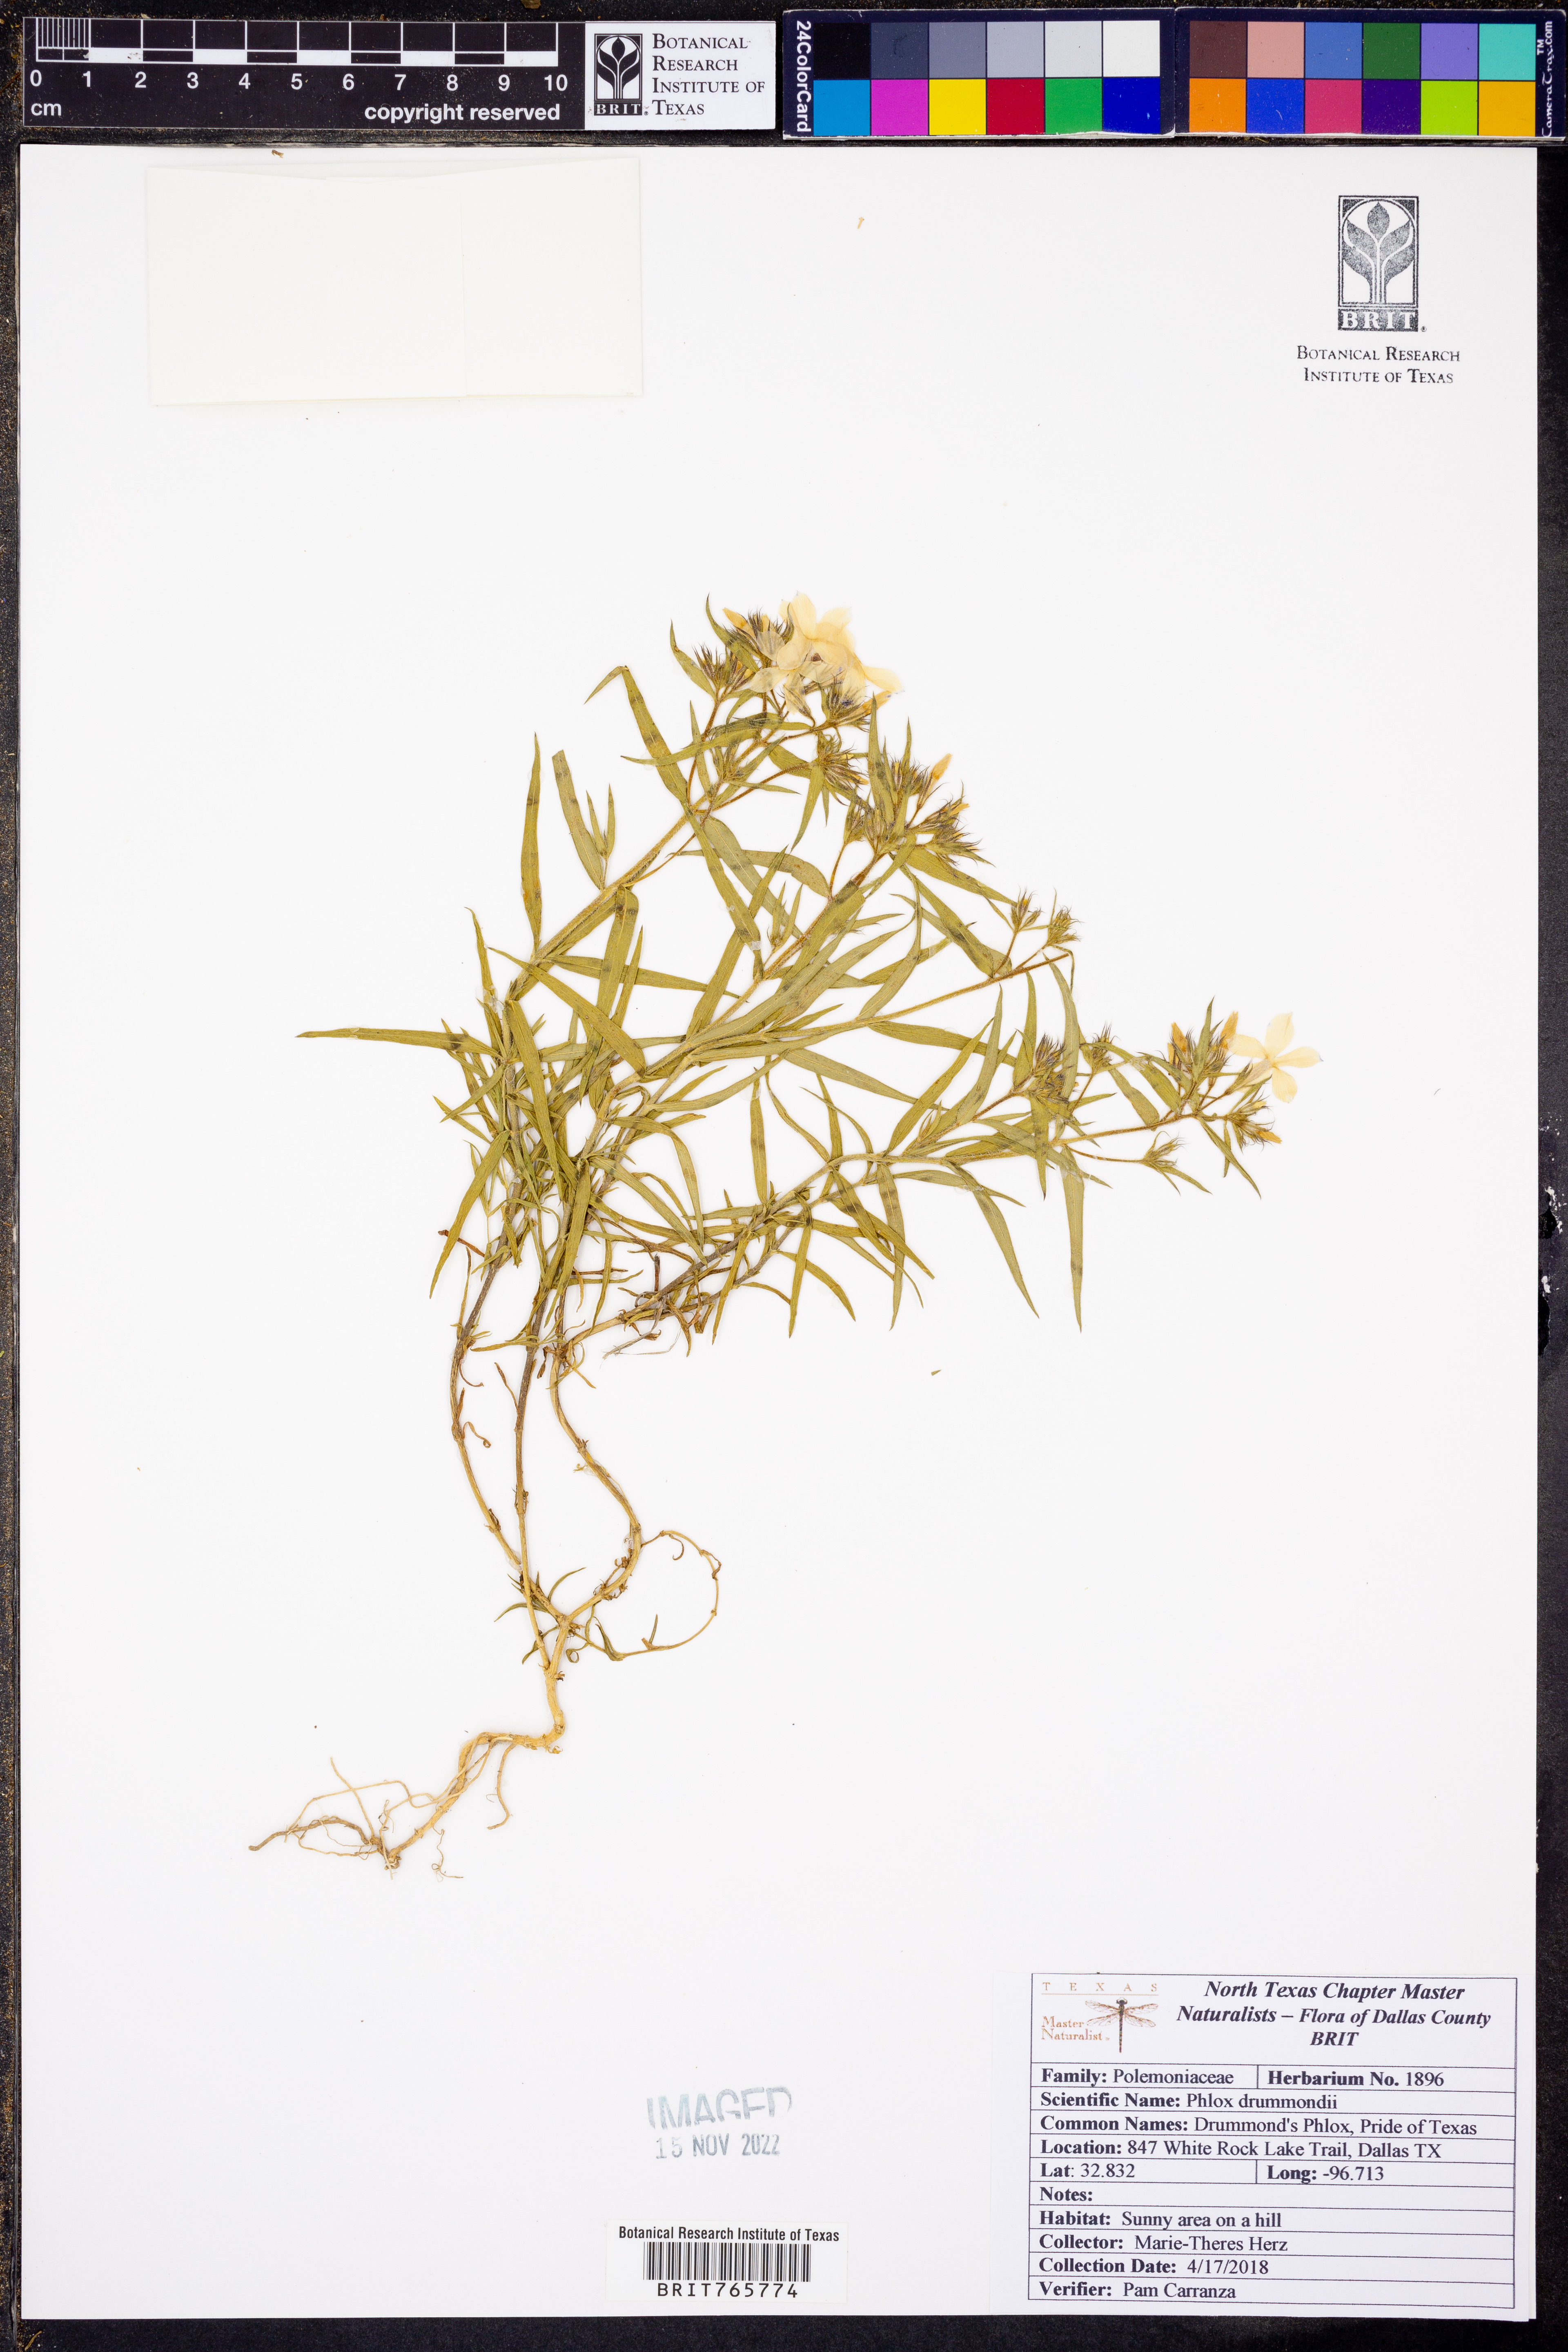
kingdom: Plantae
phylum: Tracheophyta
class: Magnoliopsida
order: Ericales
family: Polemoniaceae
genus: Phlox
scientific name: Phlox drummondii
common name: Drummond's phlox
